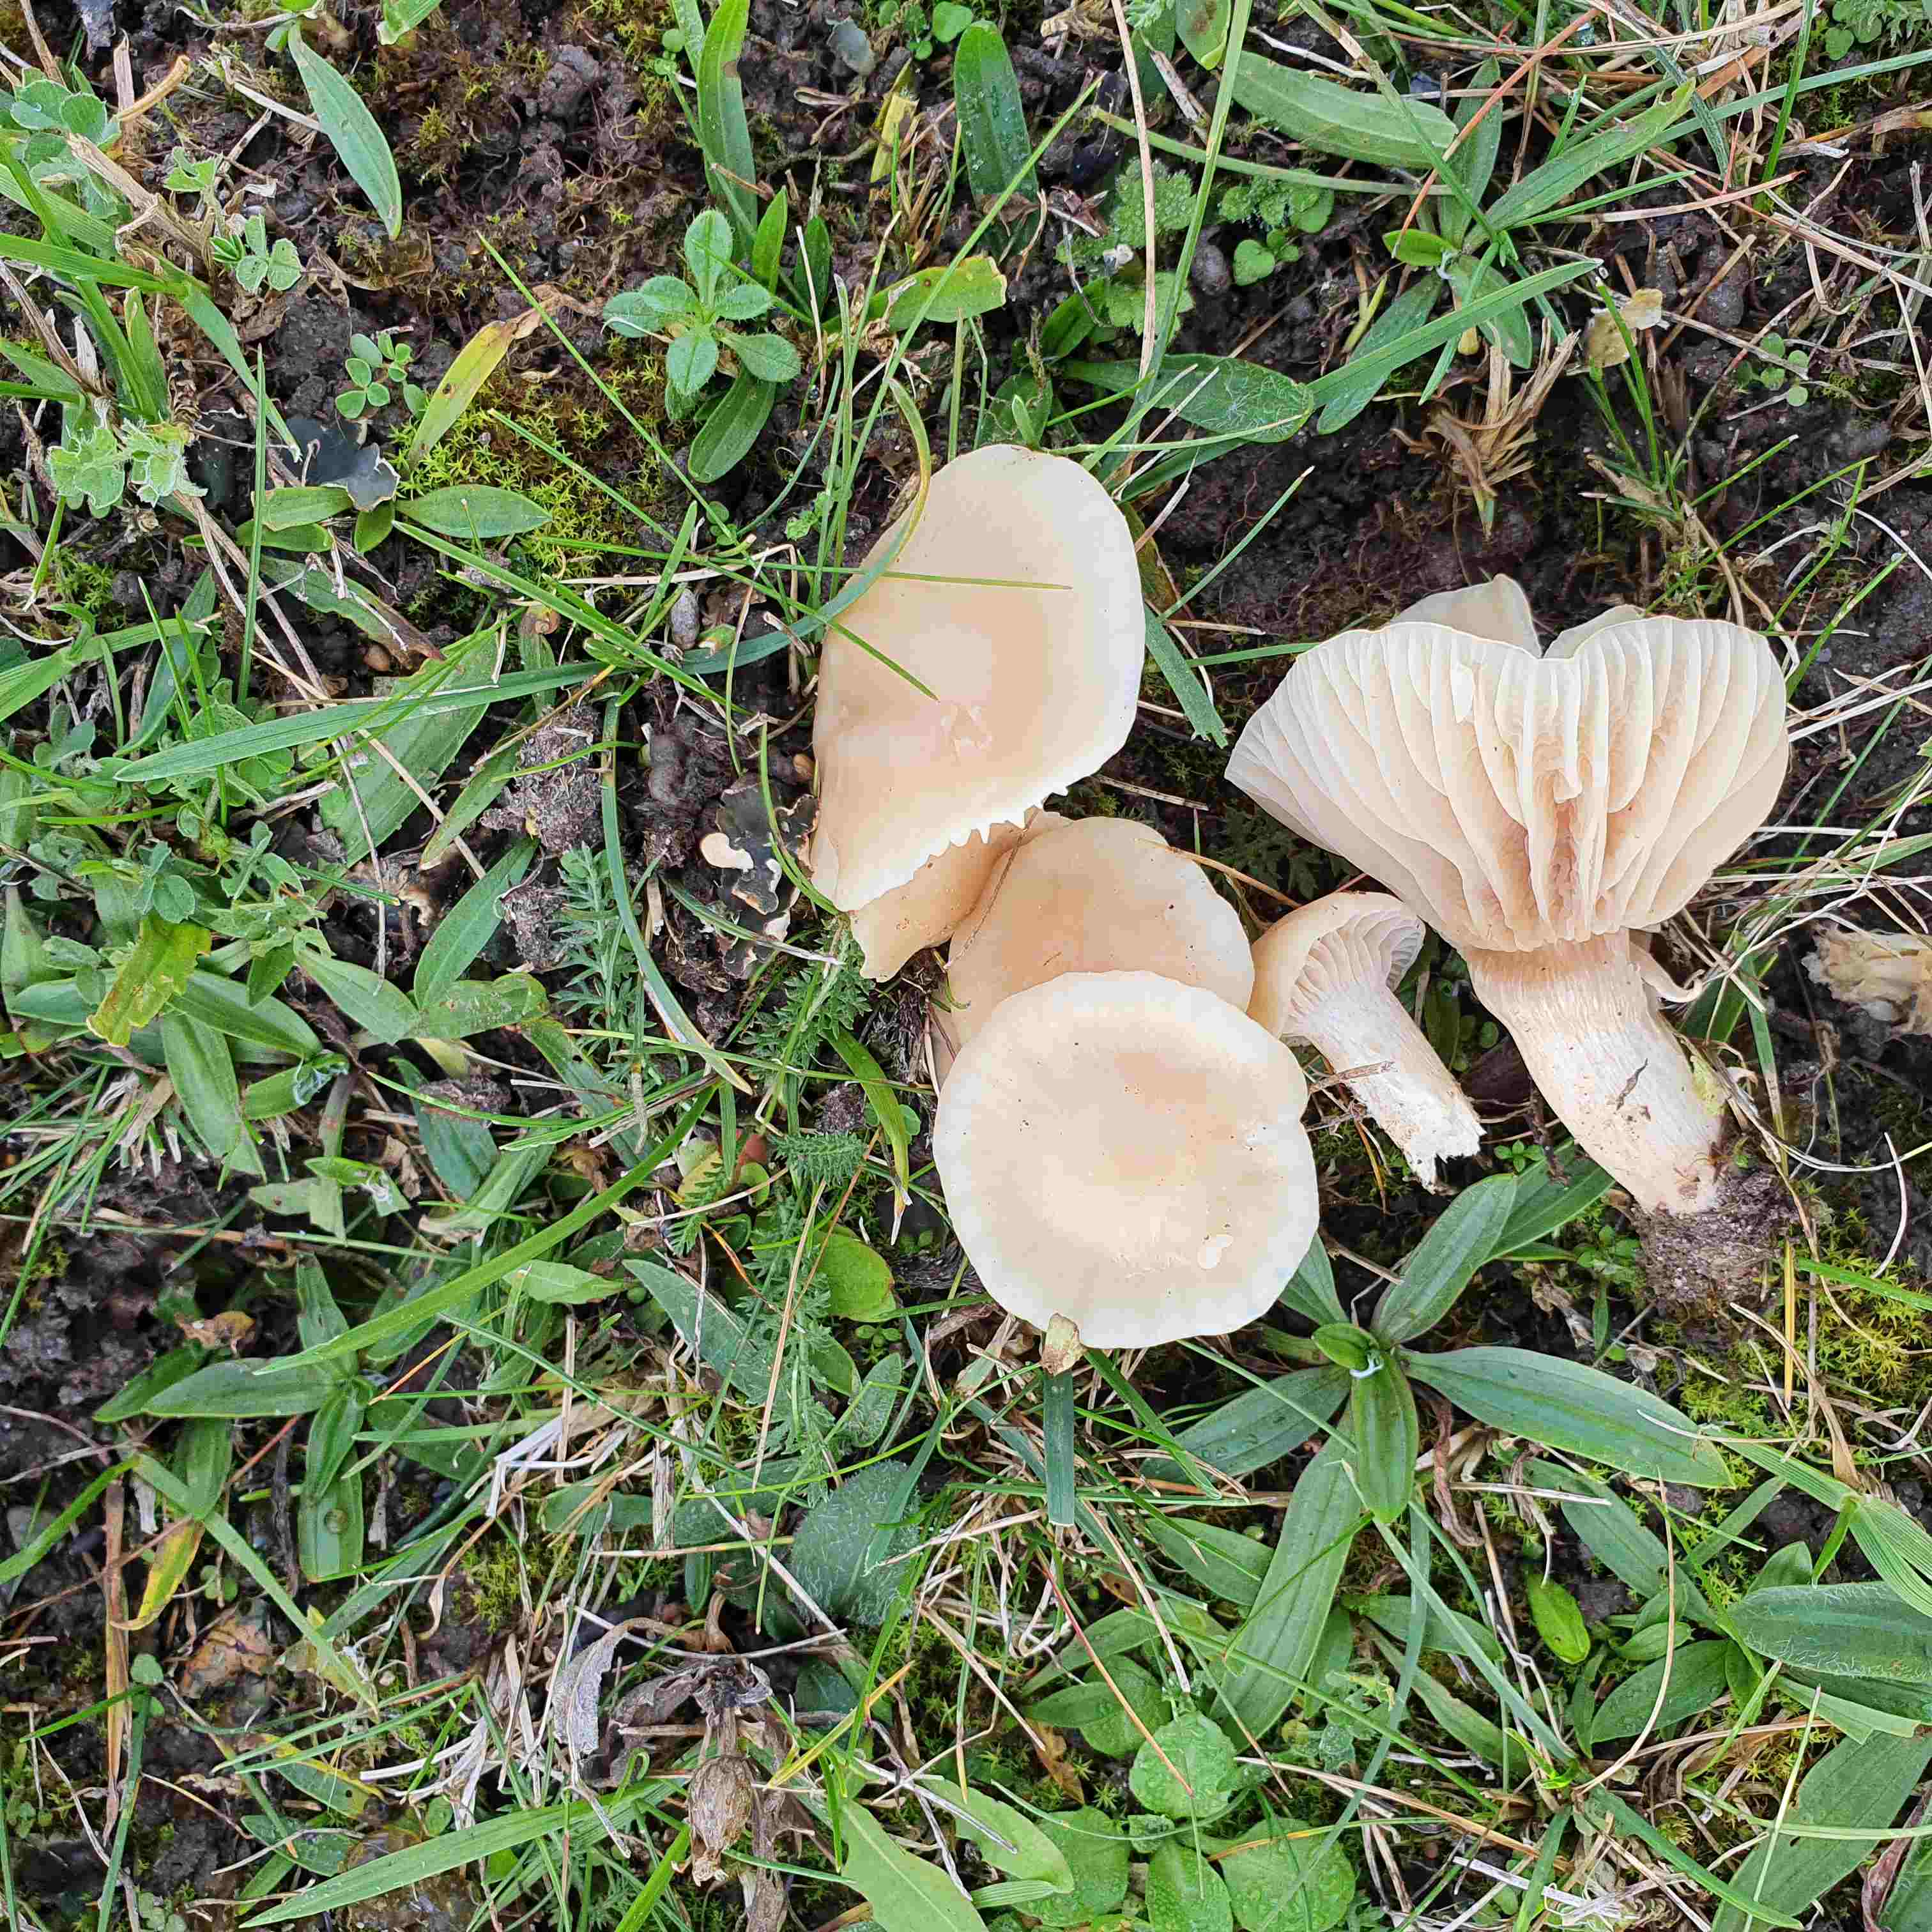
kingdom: Fungi
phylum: Basidiomycota
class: Agaricomycetes
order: Agaricales
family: Hygrophoraceae
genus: Cuphophyllus
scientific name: Cuphophyllus virgineus
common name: isabella-vokshat
